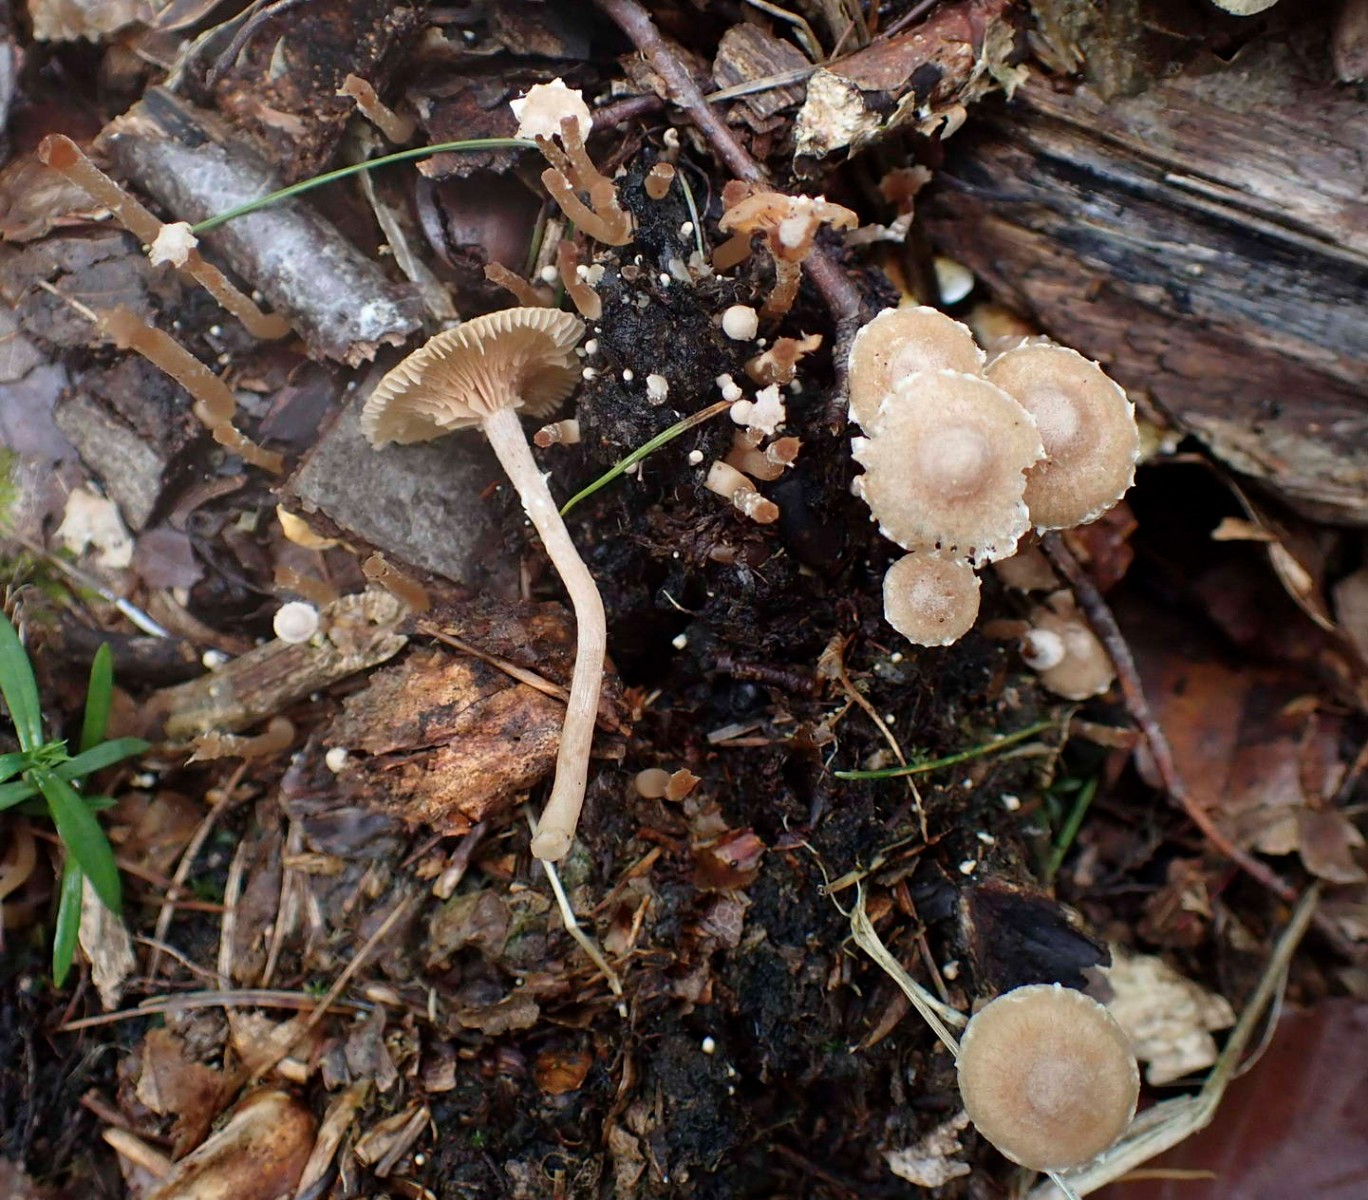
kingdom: Fungi
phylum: Basidiomycota
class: Agaricomycetes
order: Agaricales
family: Tubariaceae
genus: Tubaria
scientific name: Tubaria conspersa
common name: bleg fnughat
